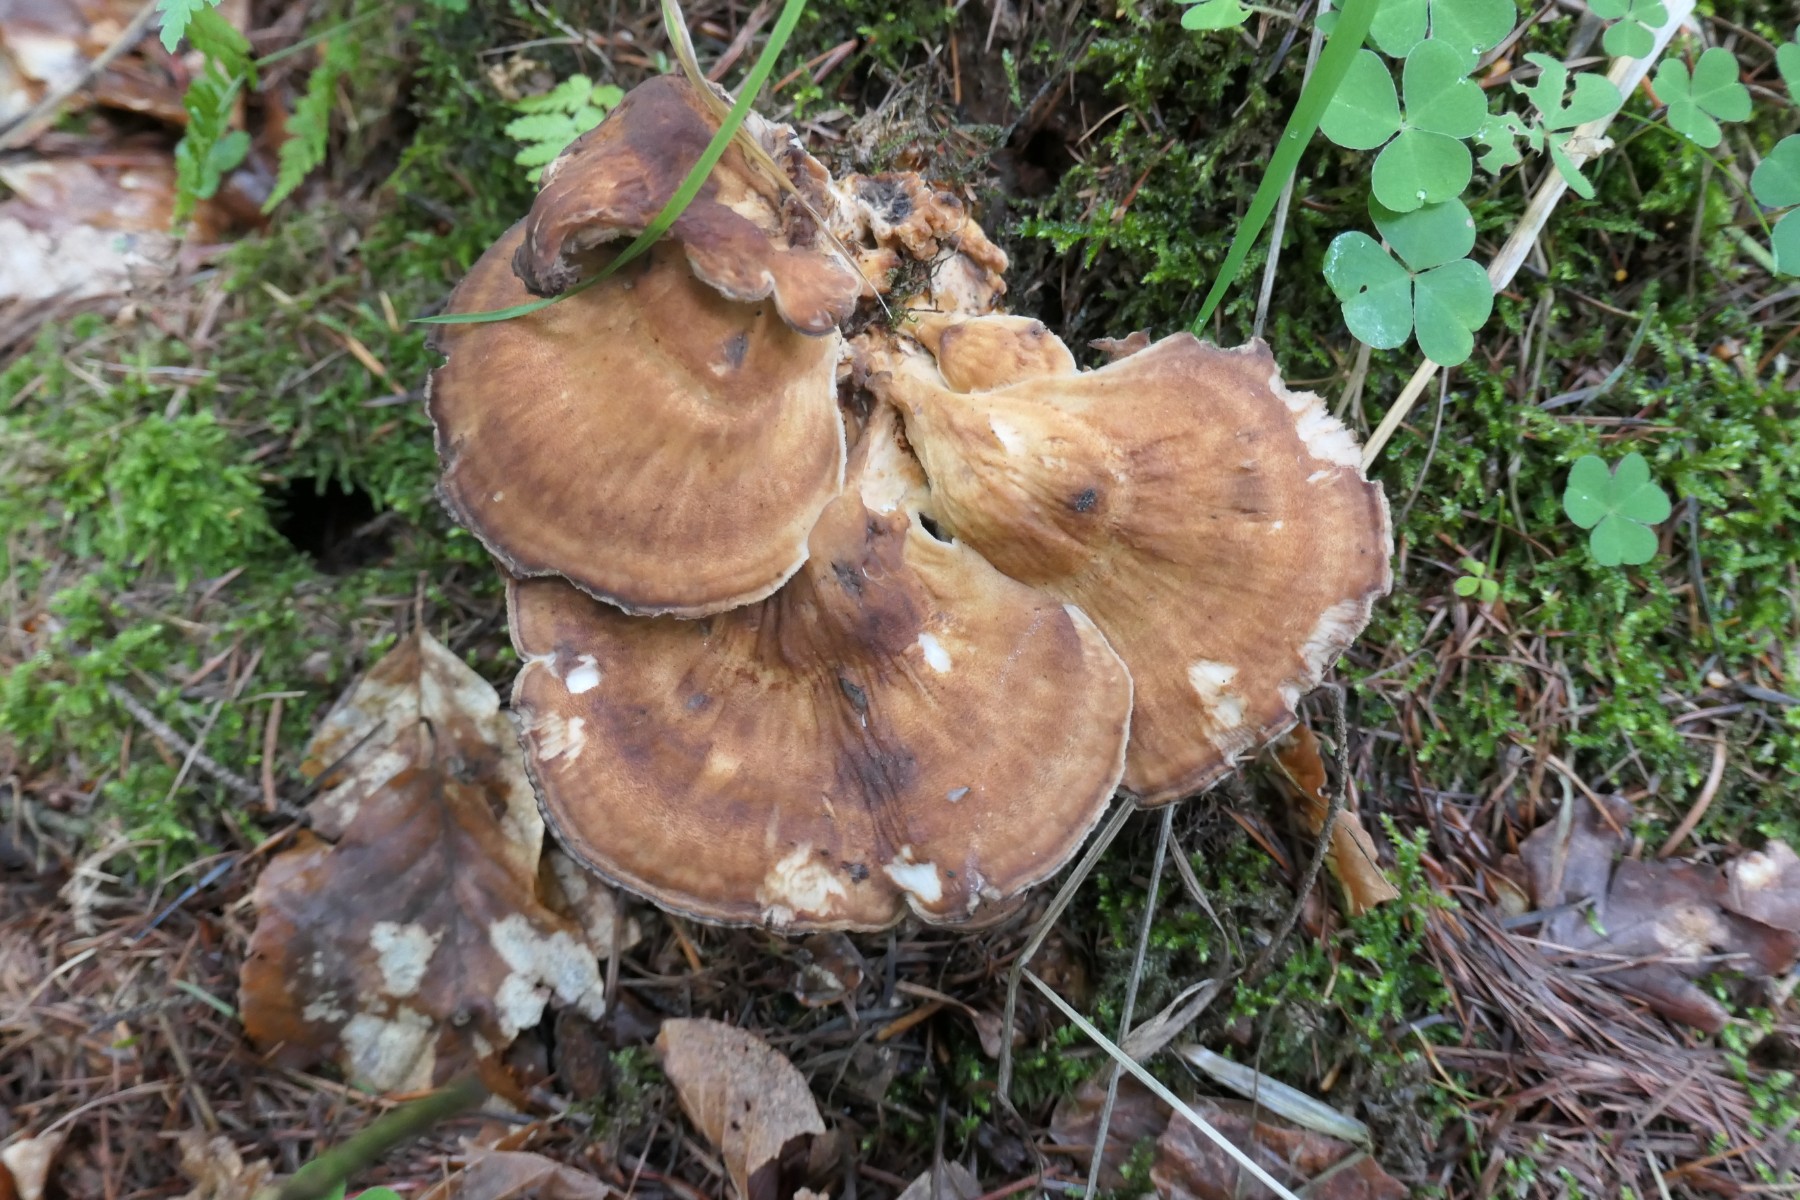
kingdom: Fungi
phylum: Basidiomycota
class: Agaricomycetes
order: Polyporales
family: Meripilaceae
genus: Meripilus
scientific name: Meripilus giganteus
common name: kæmpeporesvamp
